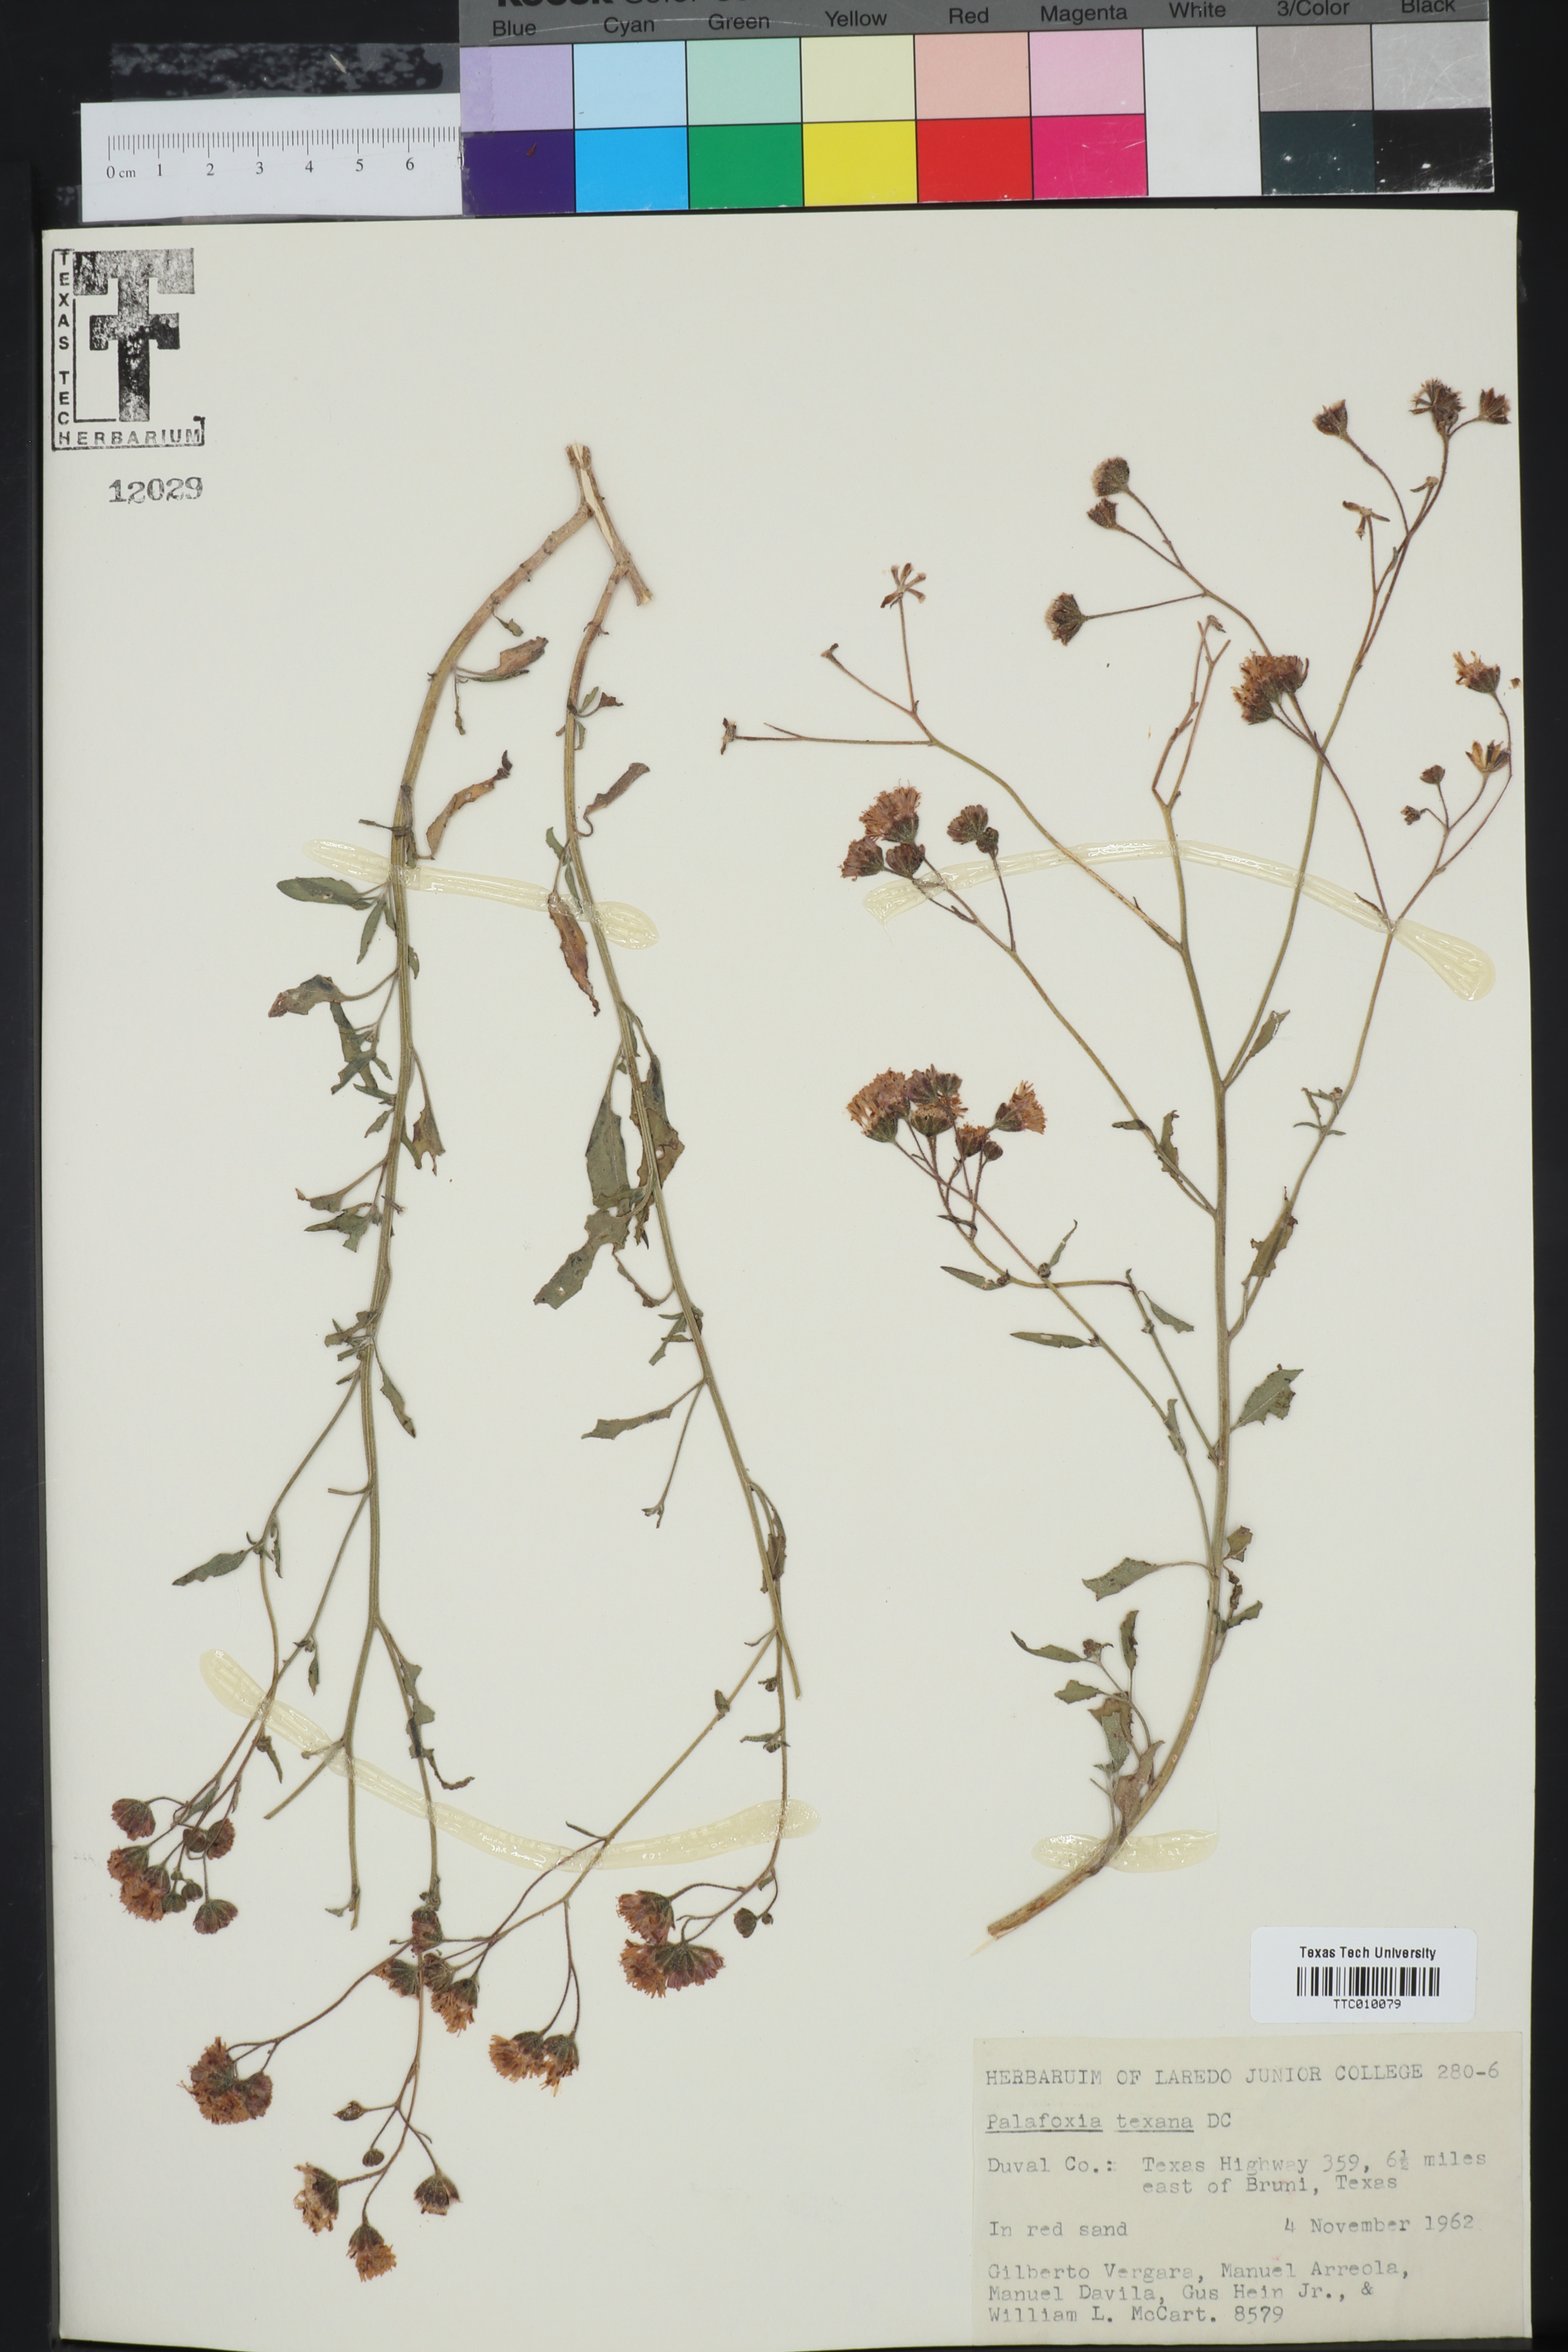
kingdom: Plantae
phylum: Tracheophyta
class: Magnoliopsida
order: Asterales
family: Asteraceae
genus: Palafoxia
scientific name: Palafoxia texana
